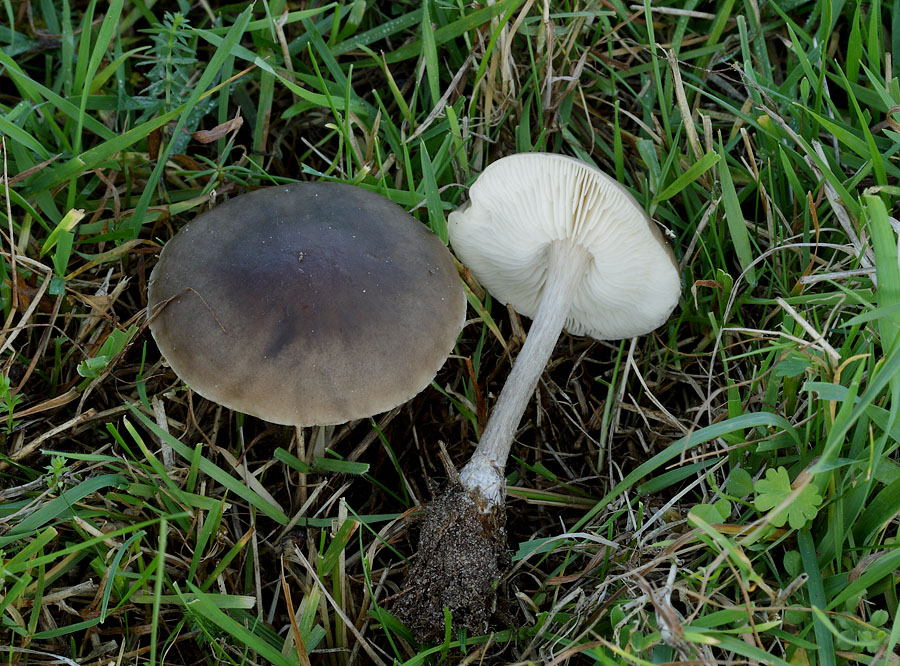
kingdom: Fungi
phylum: Basidiomycota
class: Agaricomycetes
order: Agaricales
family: Tricholomataceae
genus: Melanoleuca
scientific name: Melanoleuca bataillei
